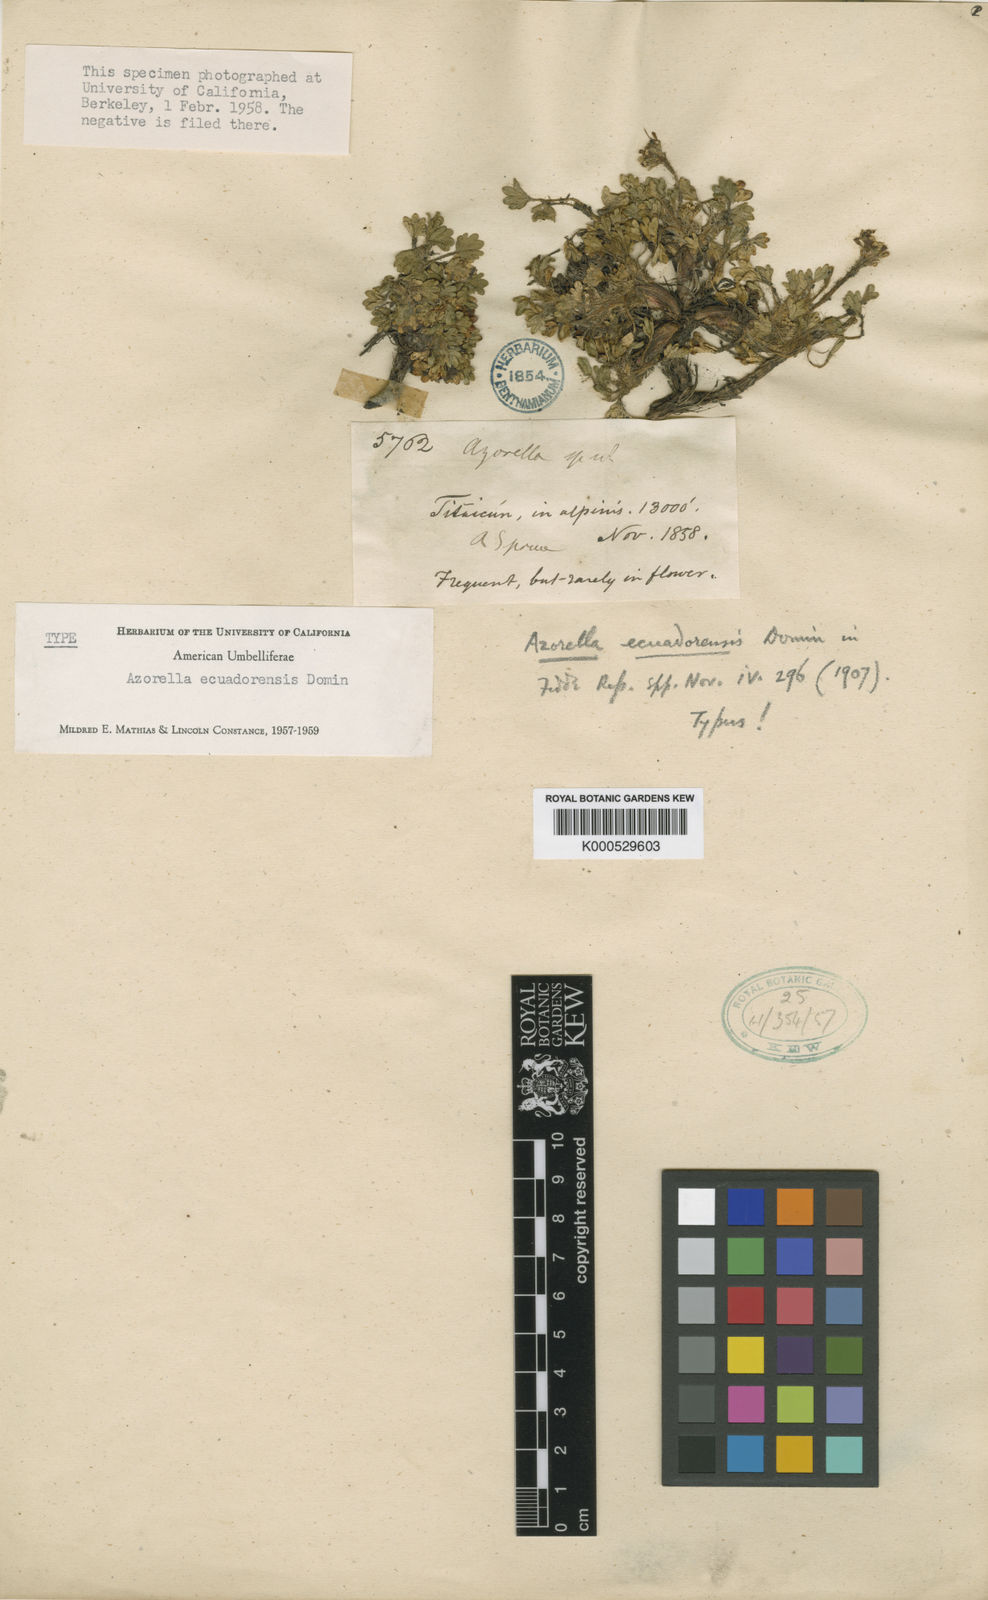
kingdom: Plantae
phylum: Tracheophyta
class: Magnoliopsida
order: Apiales
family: Apiaceae
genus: Azorella
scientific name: Azorella crenata
